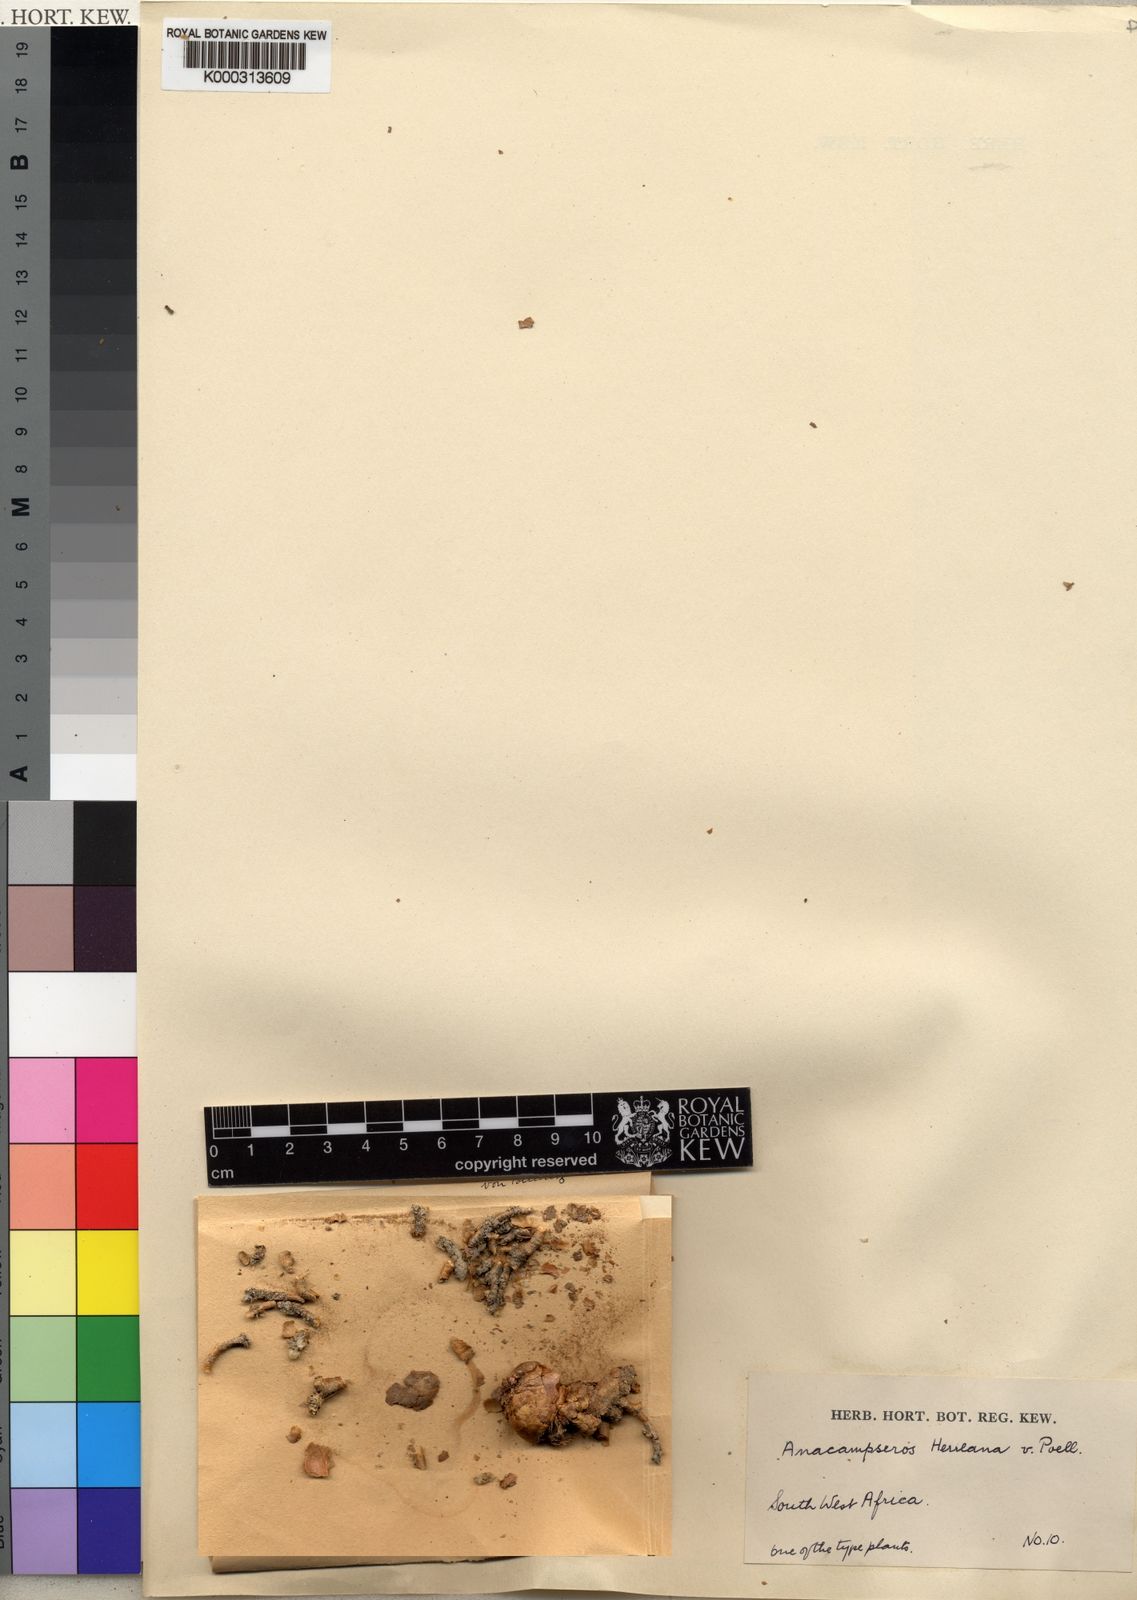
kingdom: Plantae
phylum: Tracheophyta
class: Magnoliopsida
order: Caryophyllales
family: Anacampserotaceae
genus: Avonia
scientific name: Avonia herreana
